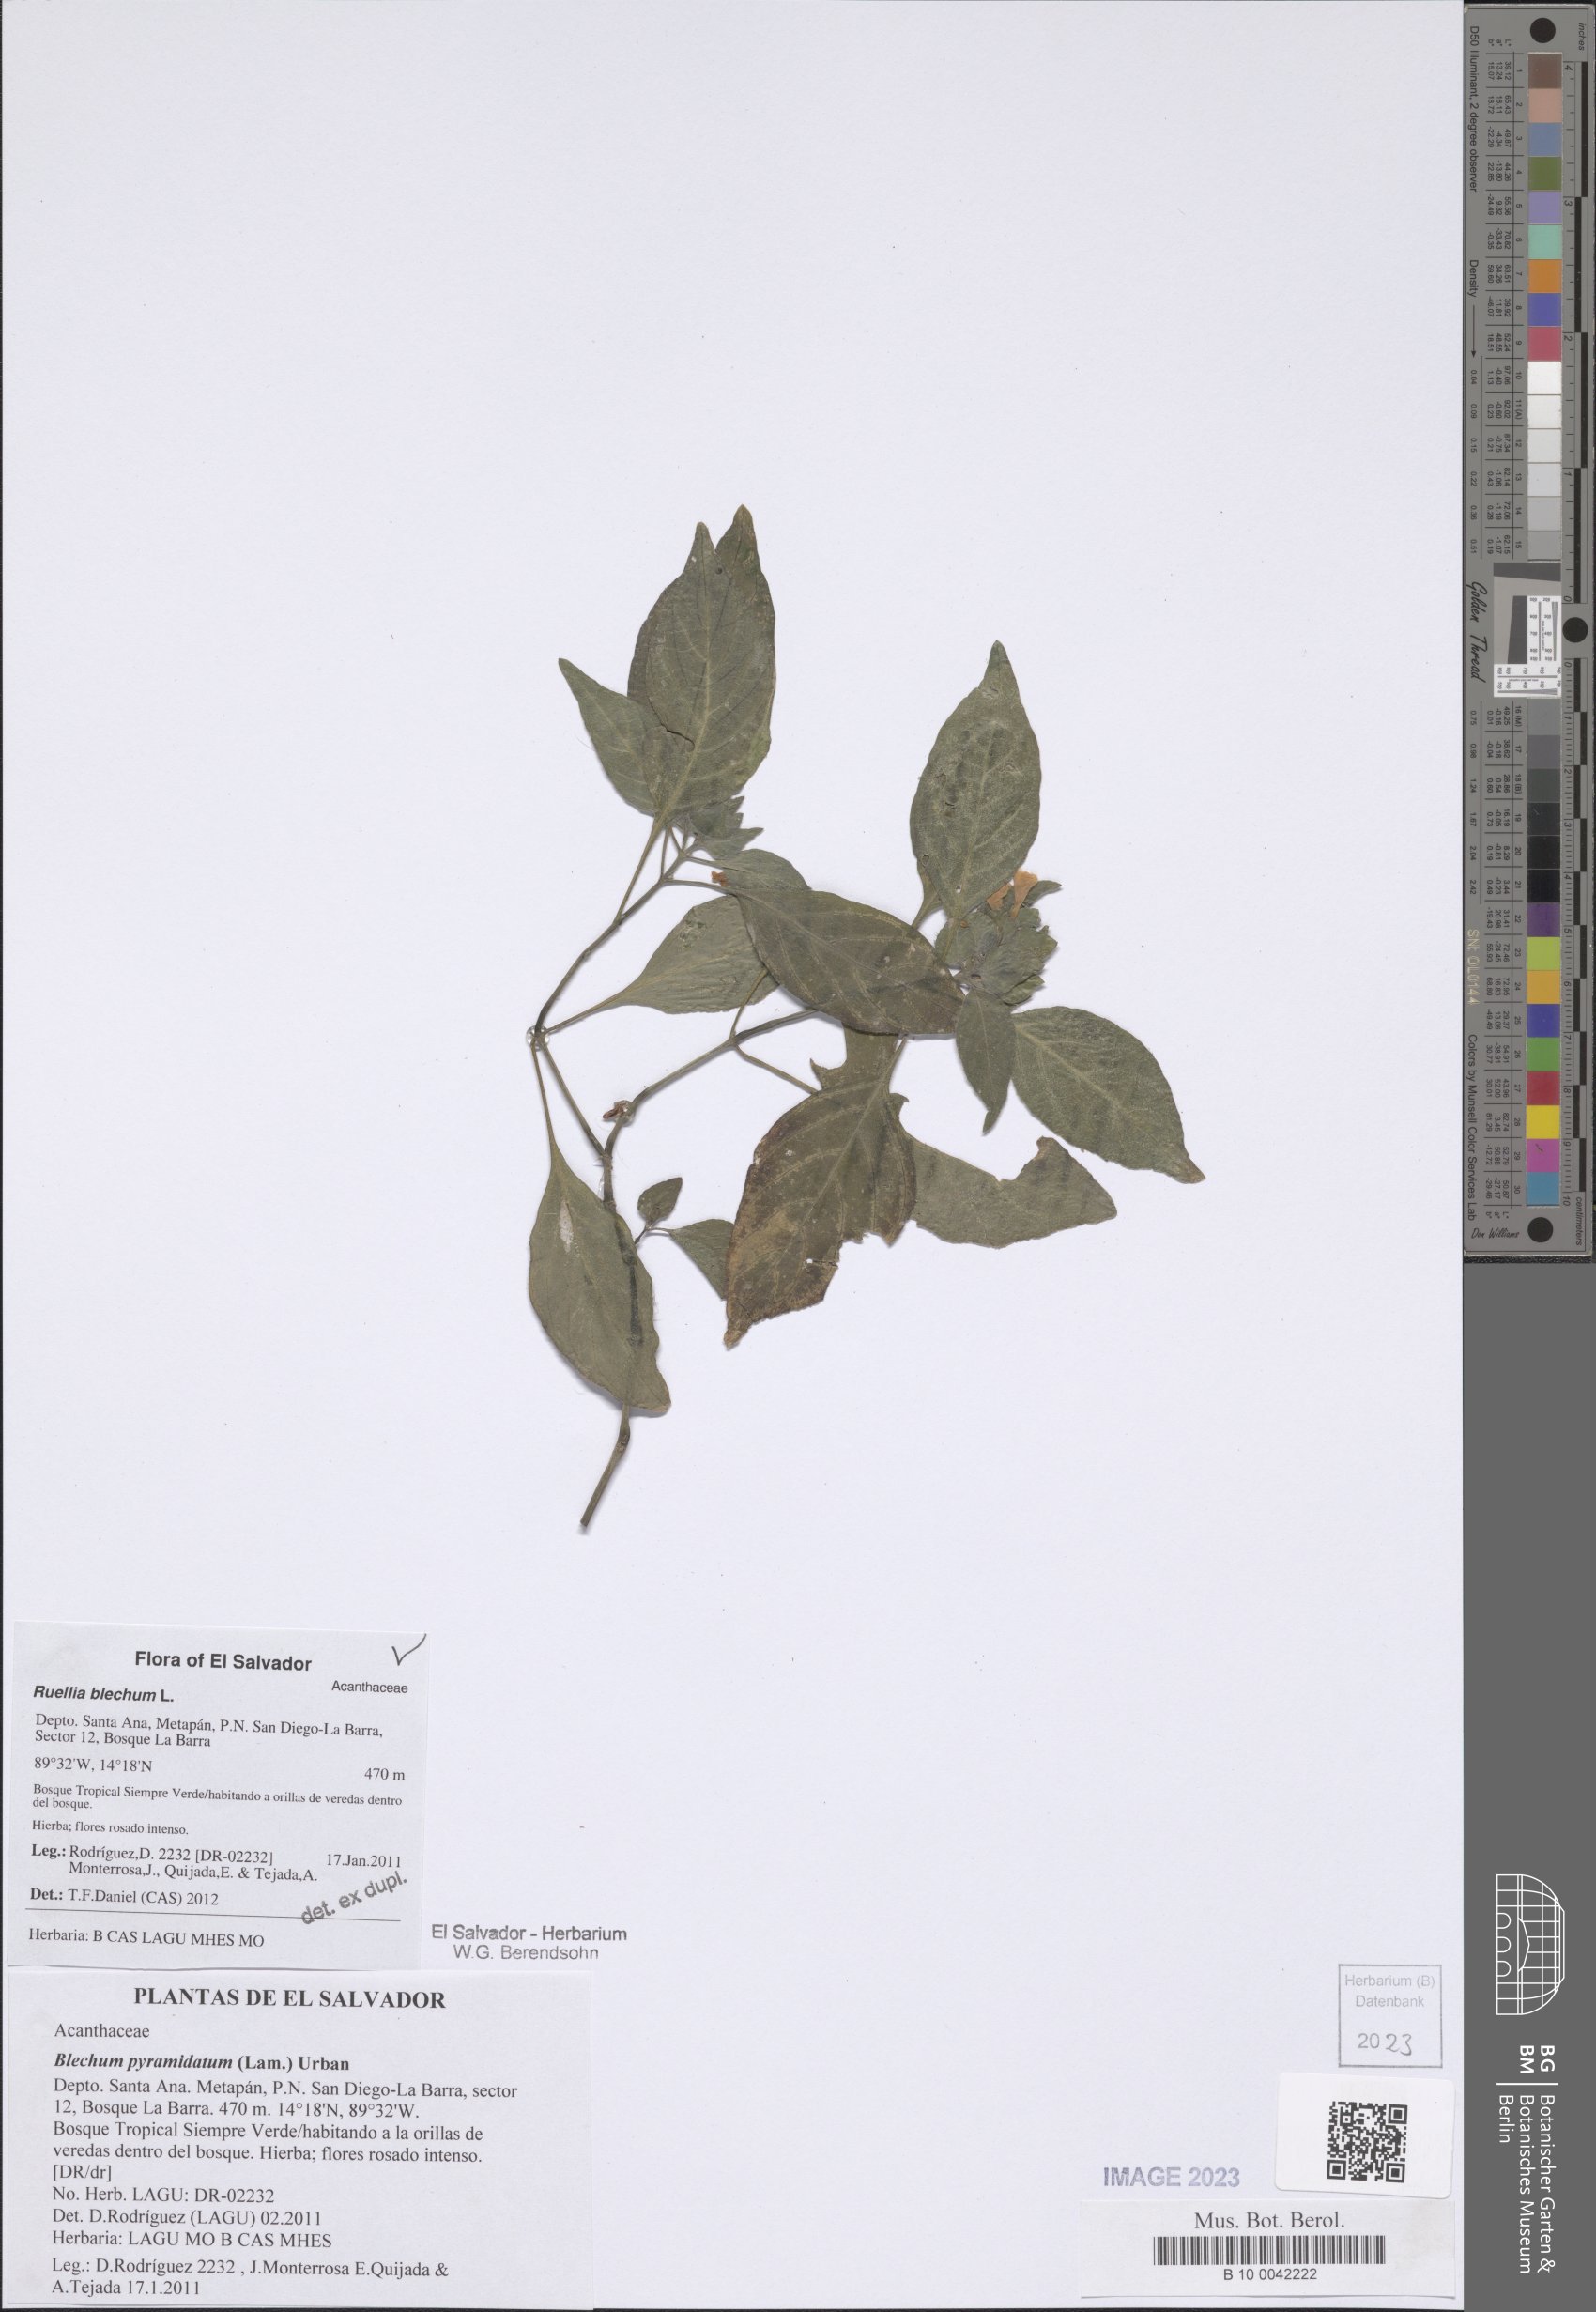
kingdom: Plantae
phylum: Tracheophyta
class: Magnoliopsida
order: Lamiales
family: Acanthaceae
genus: Ruellia
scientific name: Ruellia blechum
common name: Browne's blechum
